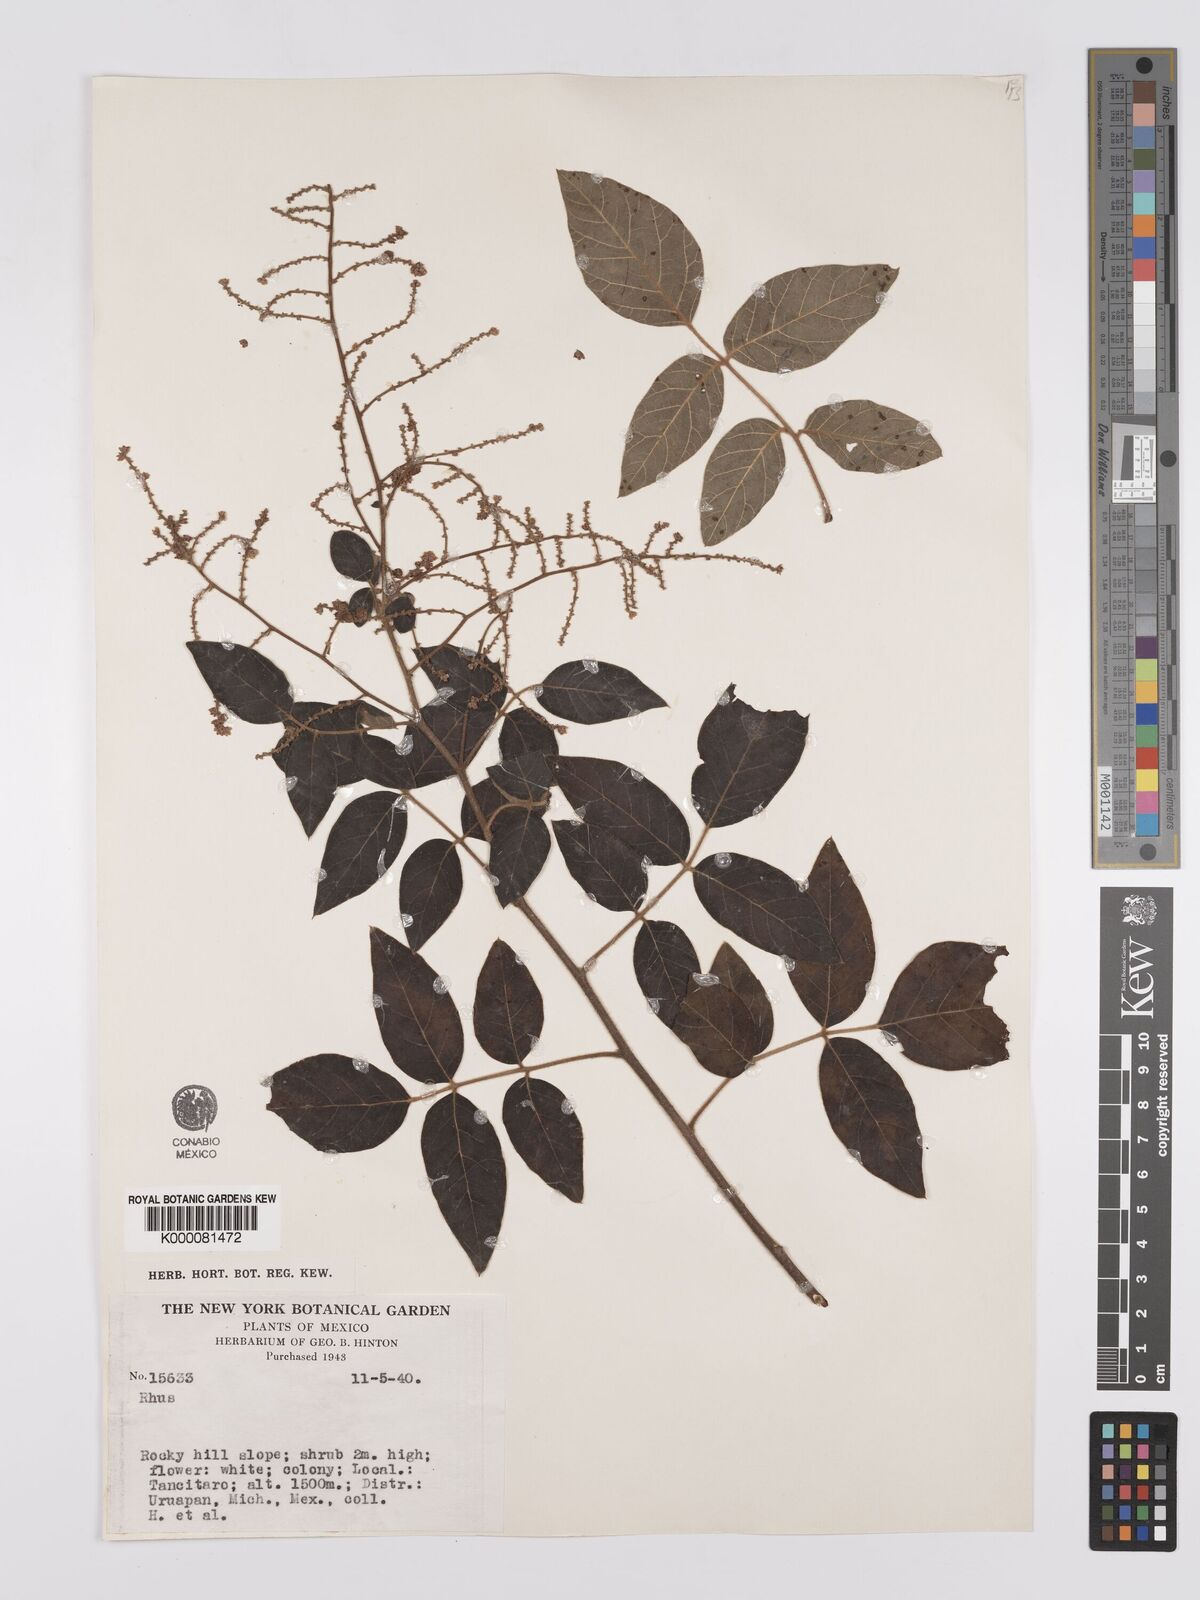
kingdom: Plantae
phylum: Tracheophyta
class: Magnoliopsida
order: Sapindales
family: Anacardiaceae
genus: Rhus
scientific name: Rhus
